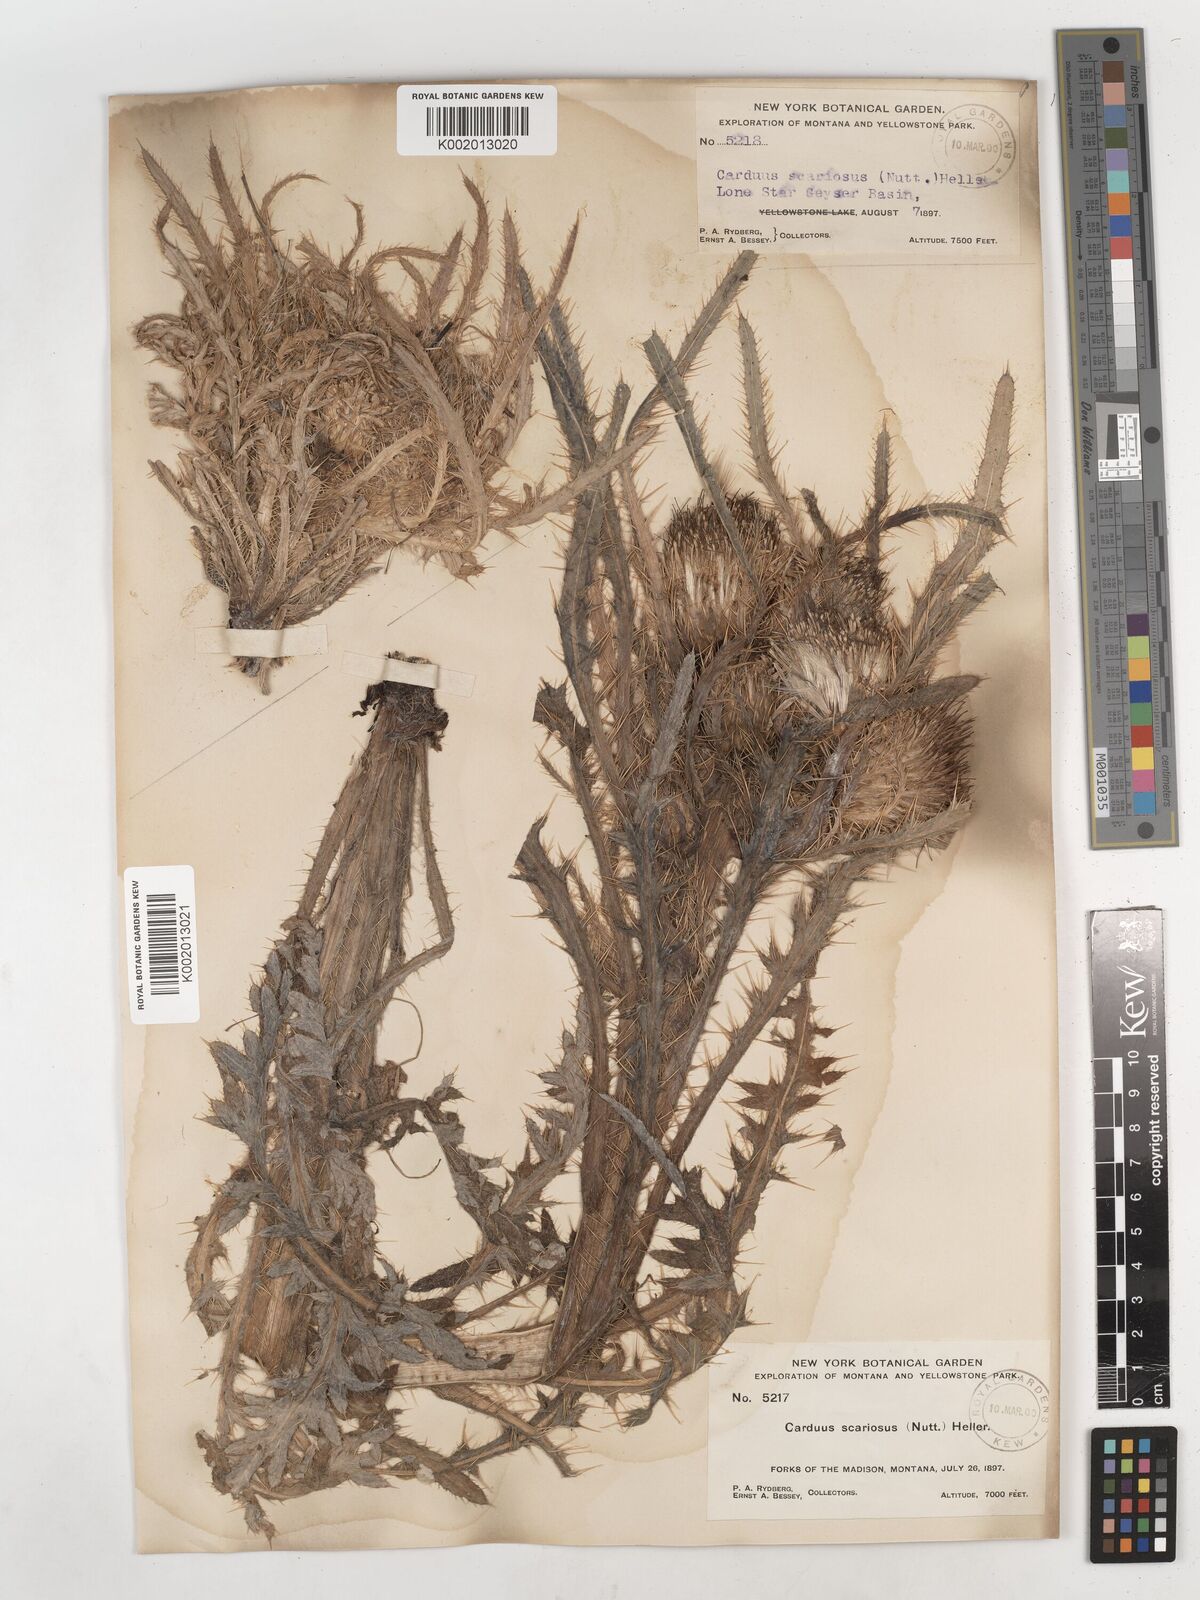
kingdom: Plantae
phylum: Tracheophyta
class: Magnoliopsida
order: Asterales
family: Asteraceae
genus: Cirsium
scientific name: Cirsium scariosum
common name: Meadow thistle
